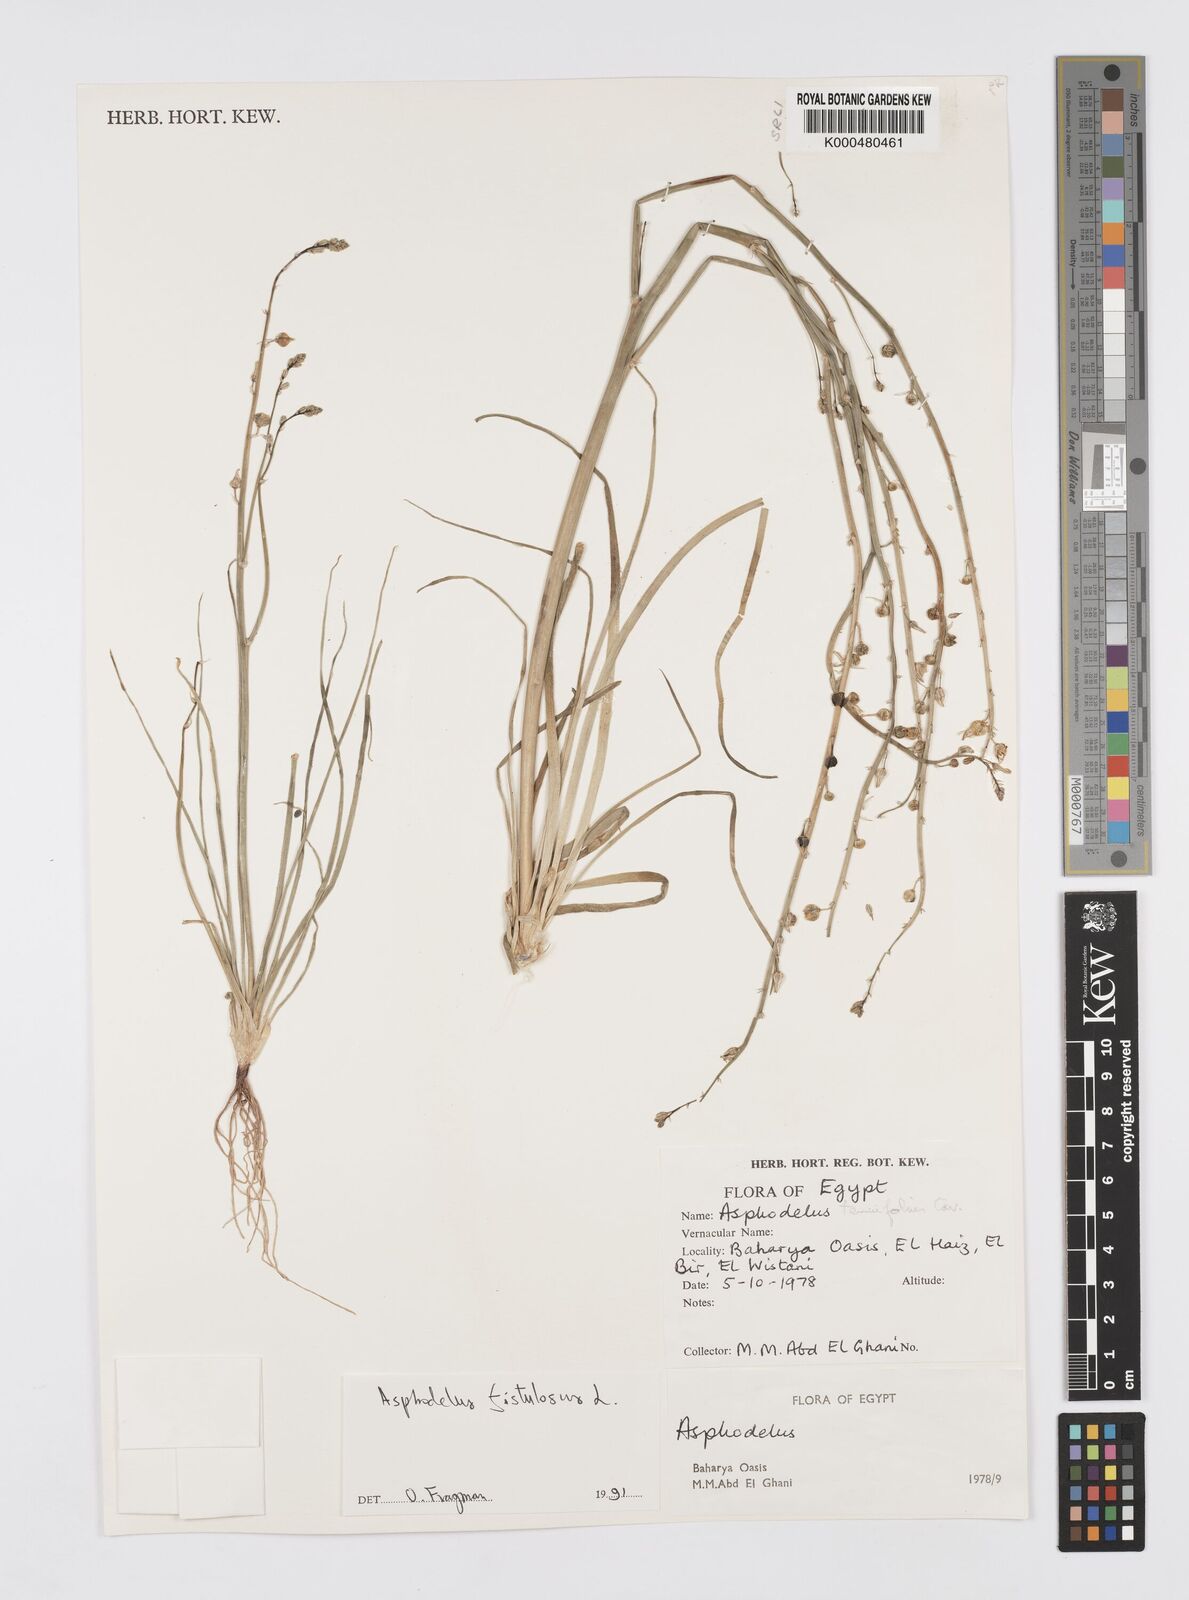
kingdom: Plantae
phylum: Tracheophyta
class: Liliopsida
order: Asparagales
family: Asphodelaceae
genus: Asphodelus
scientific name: Asphodelus fistulosus
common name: Onionweed
